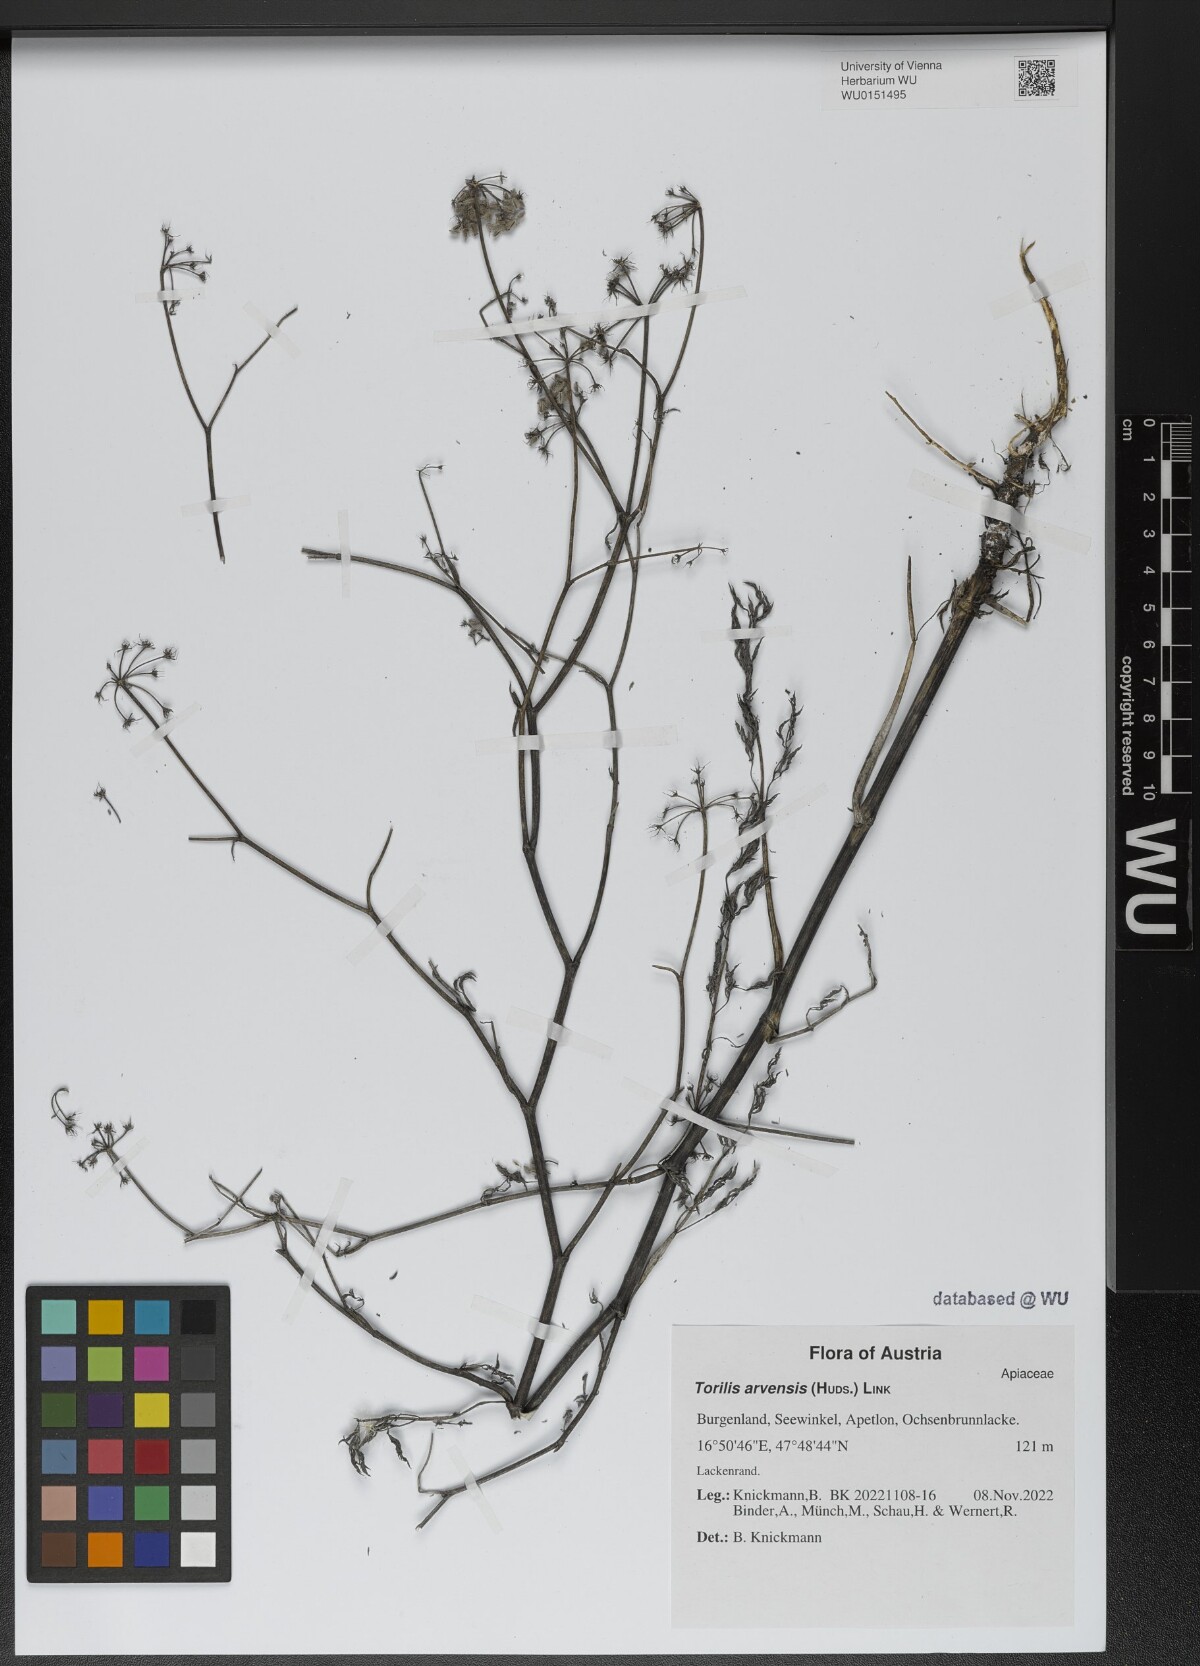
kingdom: Plantae
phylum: Tracheophyta
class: Magnoliopsida
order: Apiales
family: Apiaceae
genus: Torilis
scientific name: Torilis arvensis
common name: Spreading hedge-parsley
